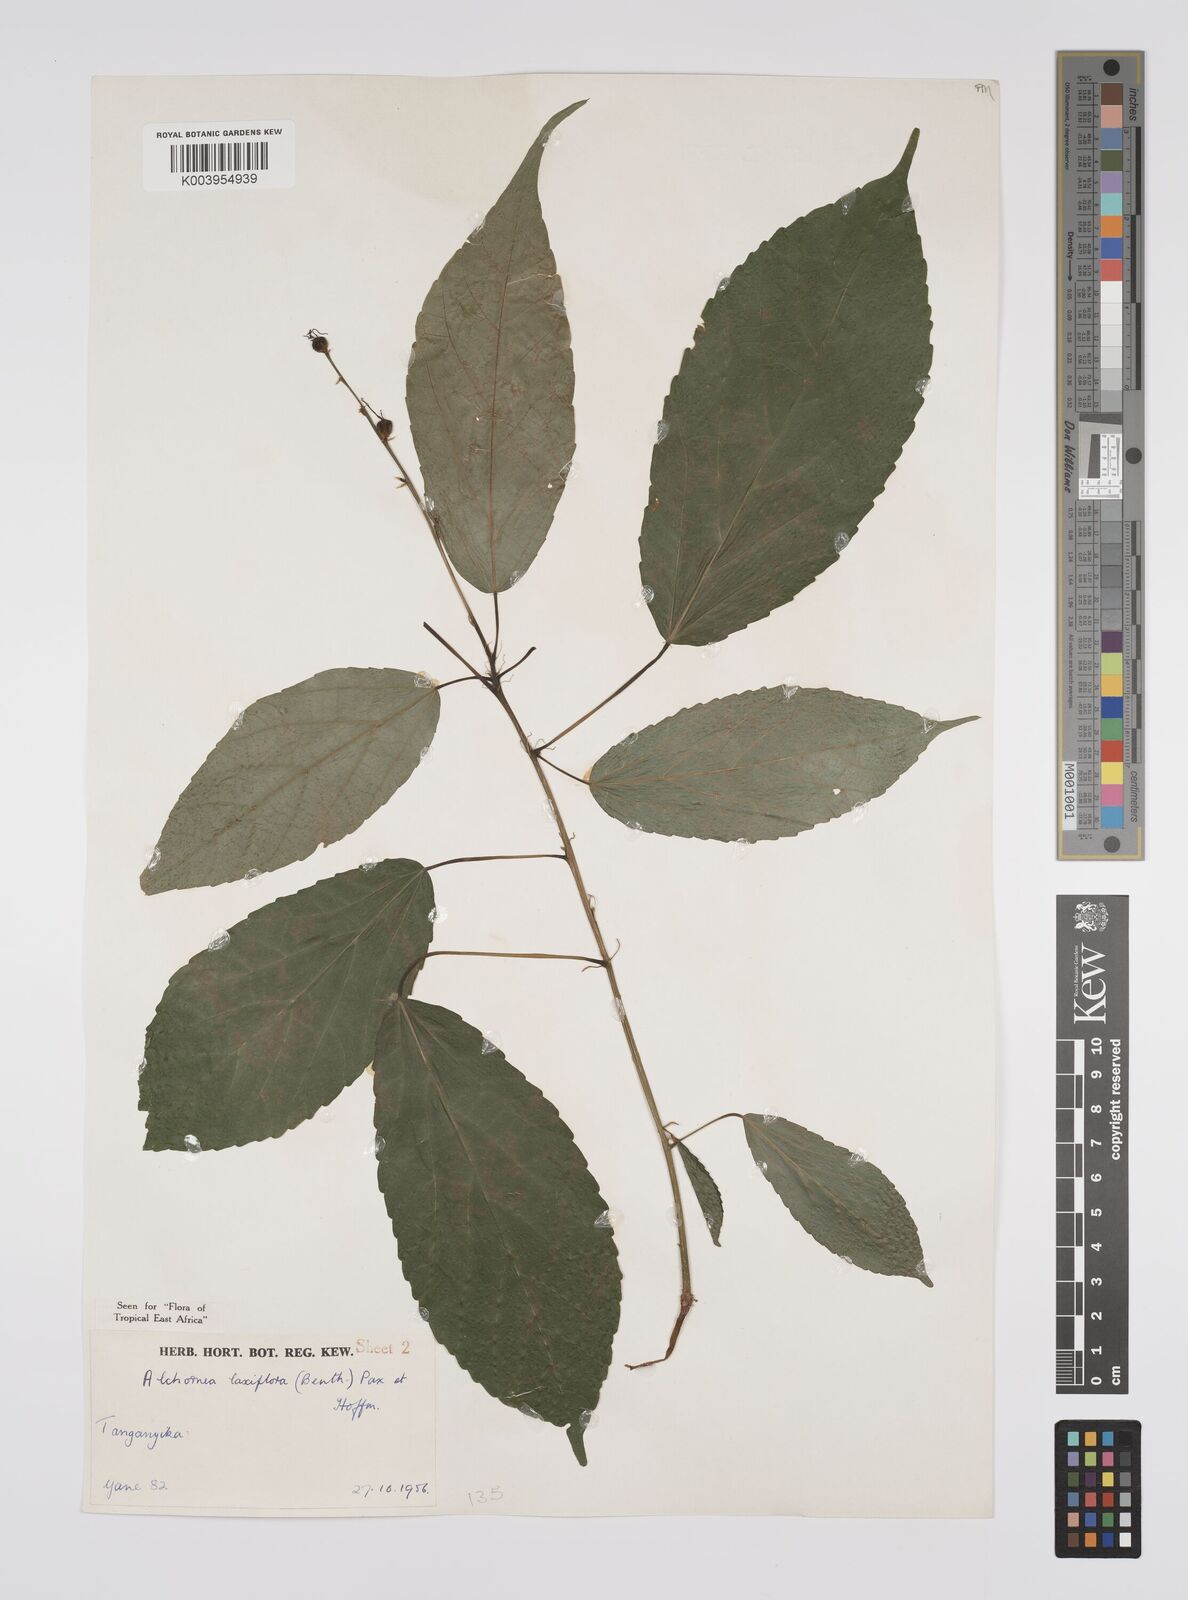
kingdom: Plantae
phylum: Tracheophyta
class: Magnoliopsida
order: Malpighiales
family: Euphorbiaceae
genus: Alchornea
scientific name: Alchornea laxiflora
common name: Lowveld bead-string
